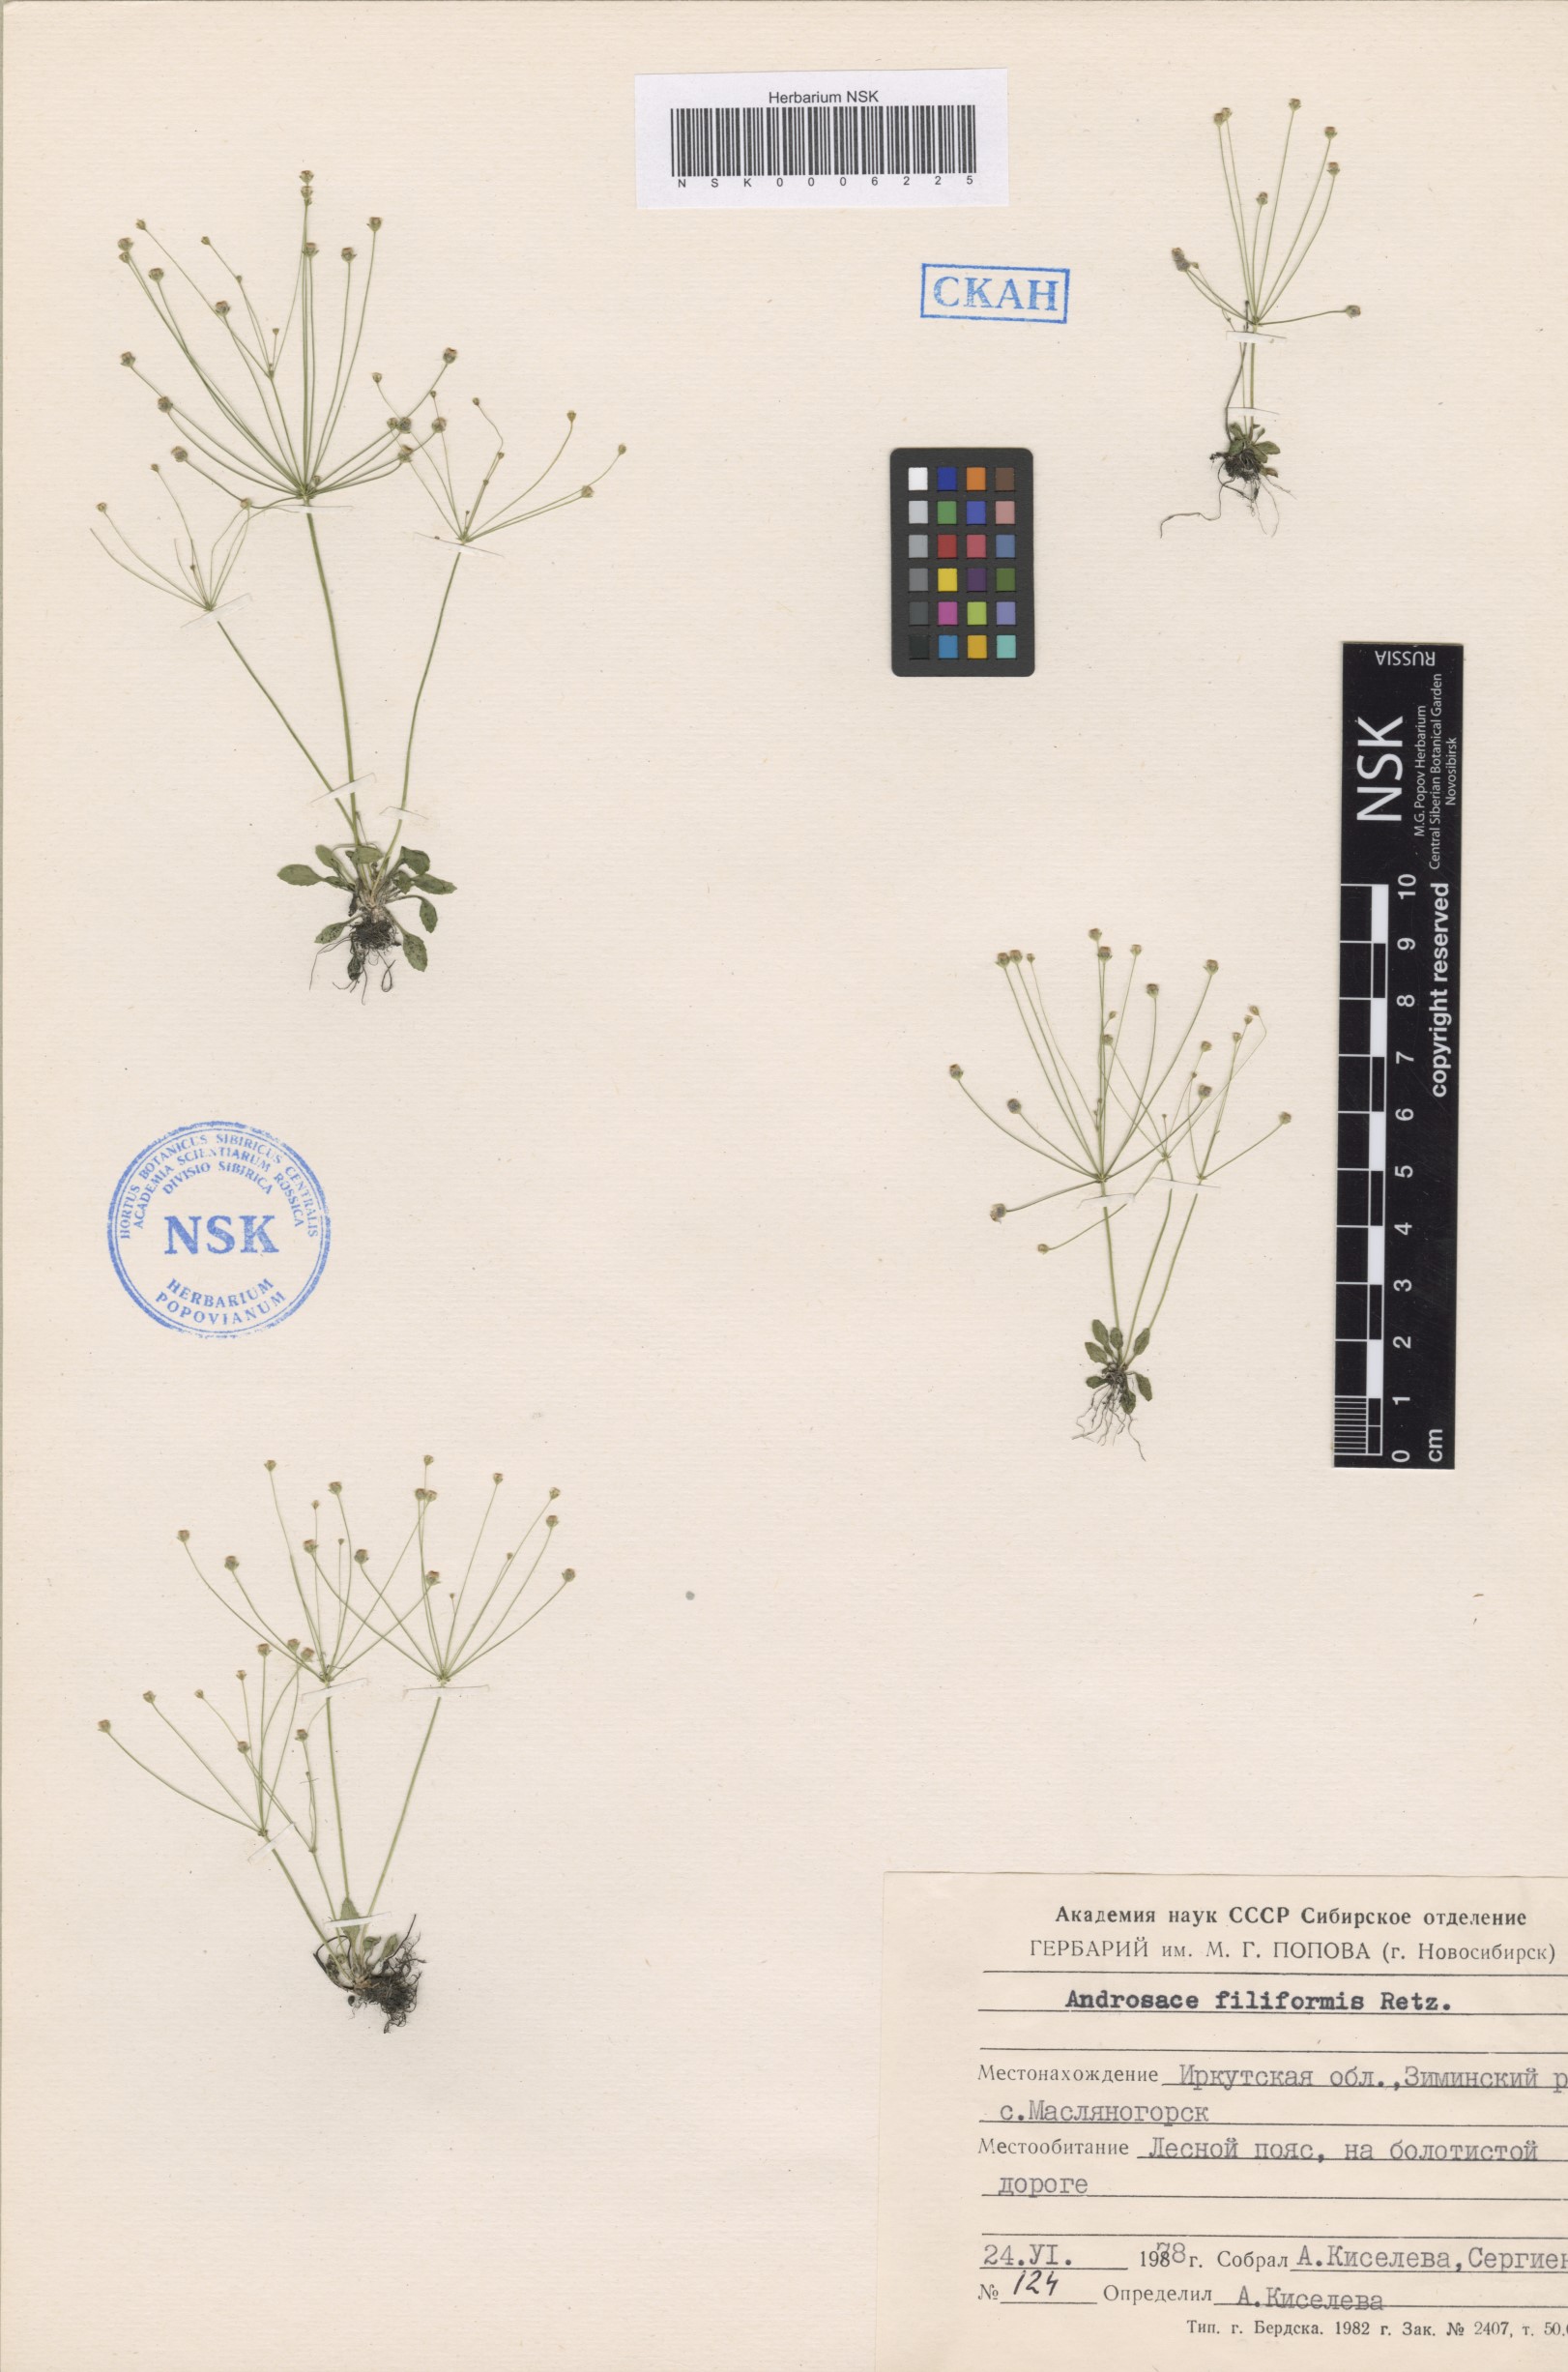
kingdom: Plantae
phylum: Tracheophyta
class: Magnoliopsida
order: Ericales
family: Primulaceae
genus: Androsace
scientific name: Androsace filiformis
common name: Filiform rock jasmine
